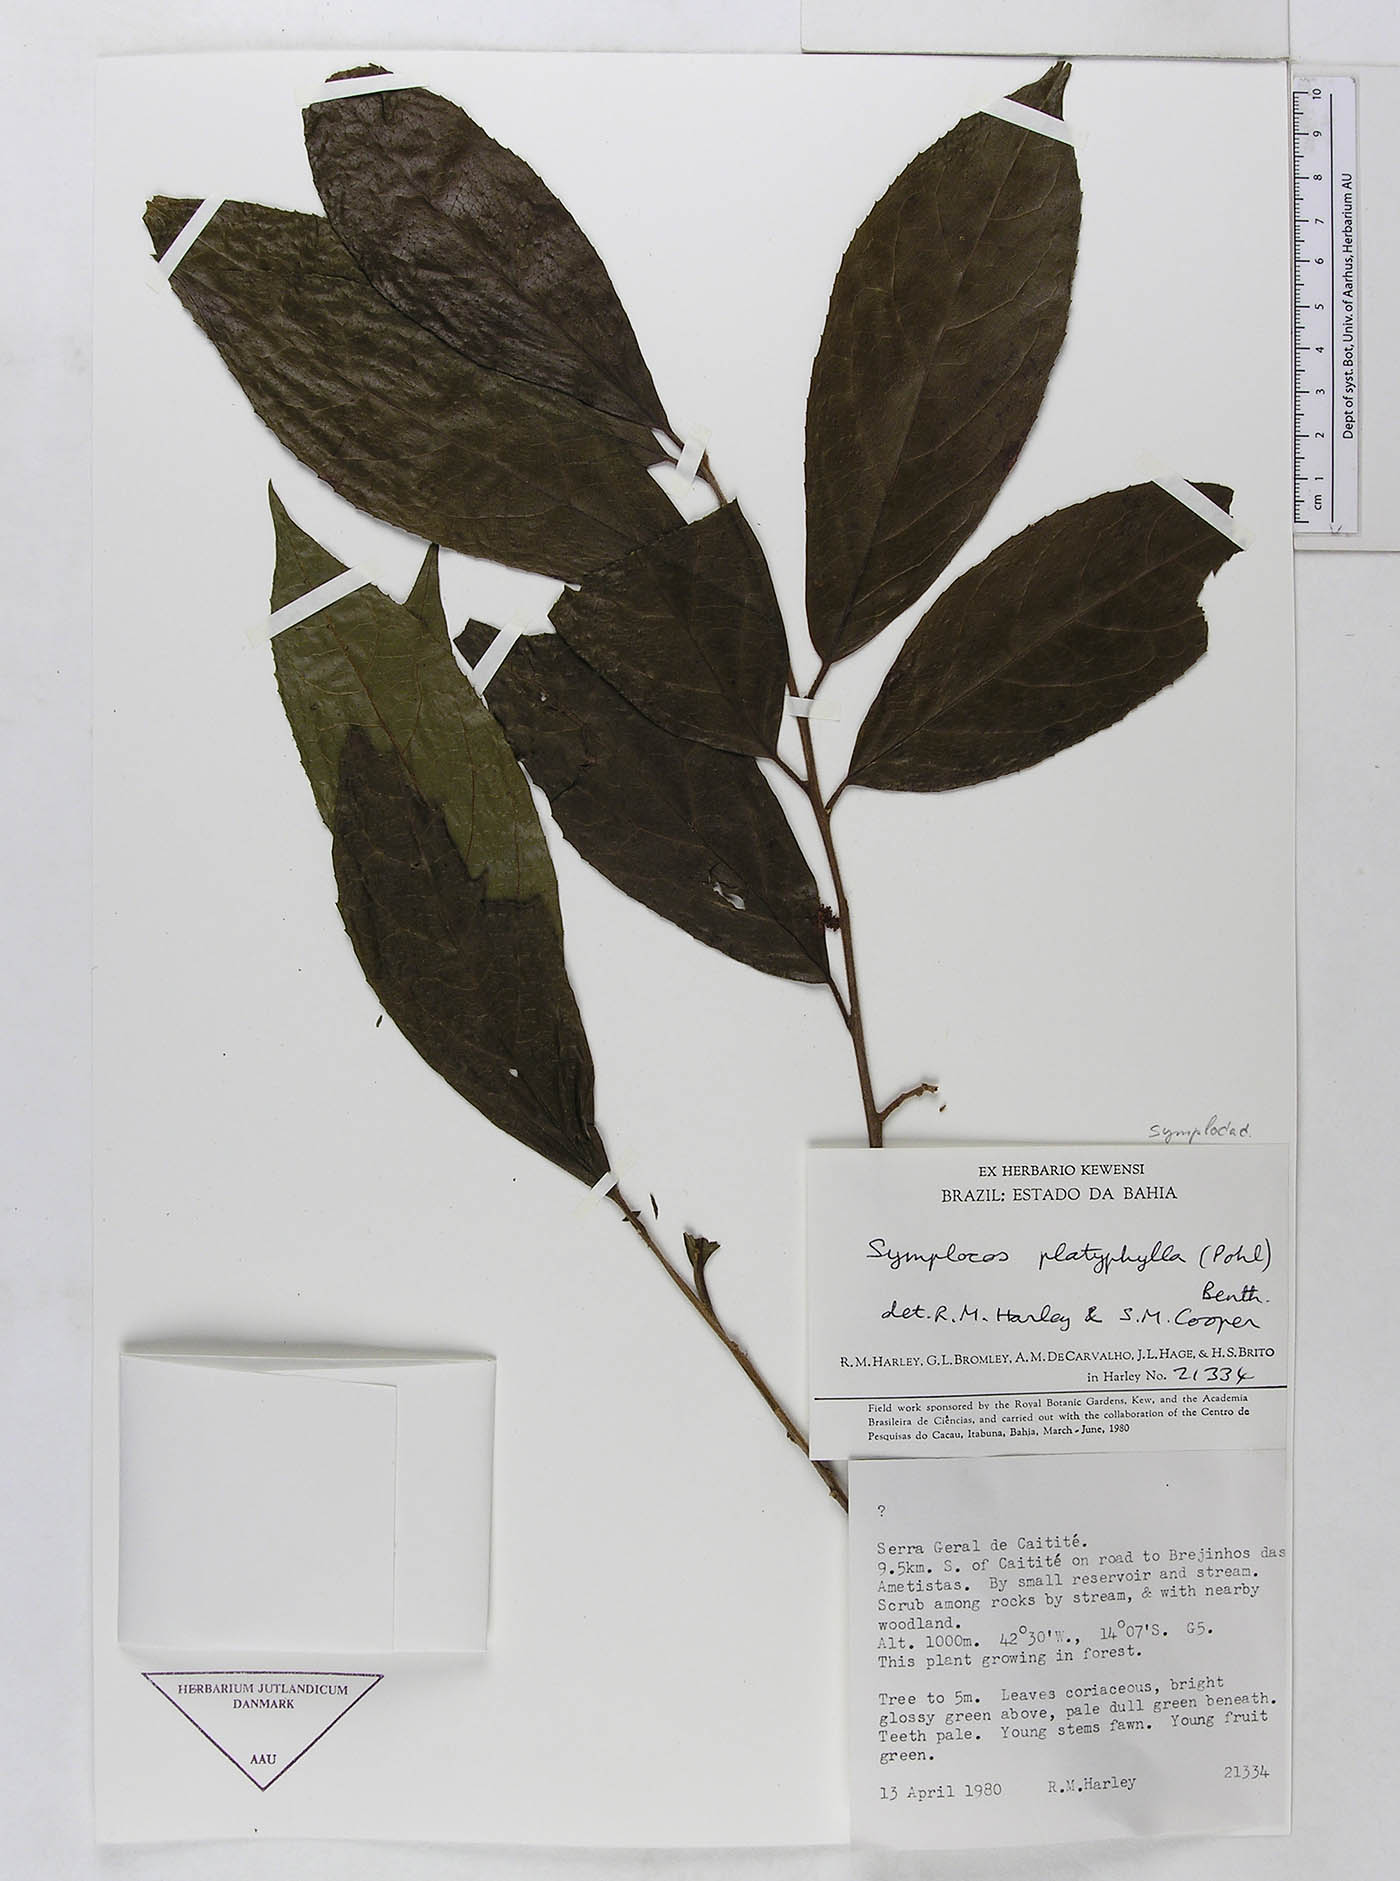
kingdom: Plantae
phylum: Tracheophyta
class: Magnoliopsida
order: Ericales
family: Symplocaceae
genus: Symplocos
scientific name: Symplocos platyphylla
